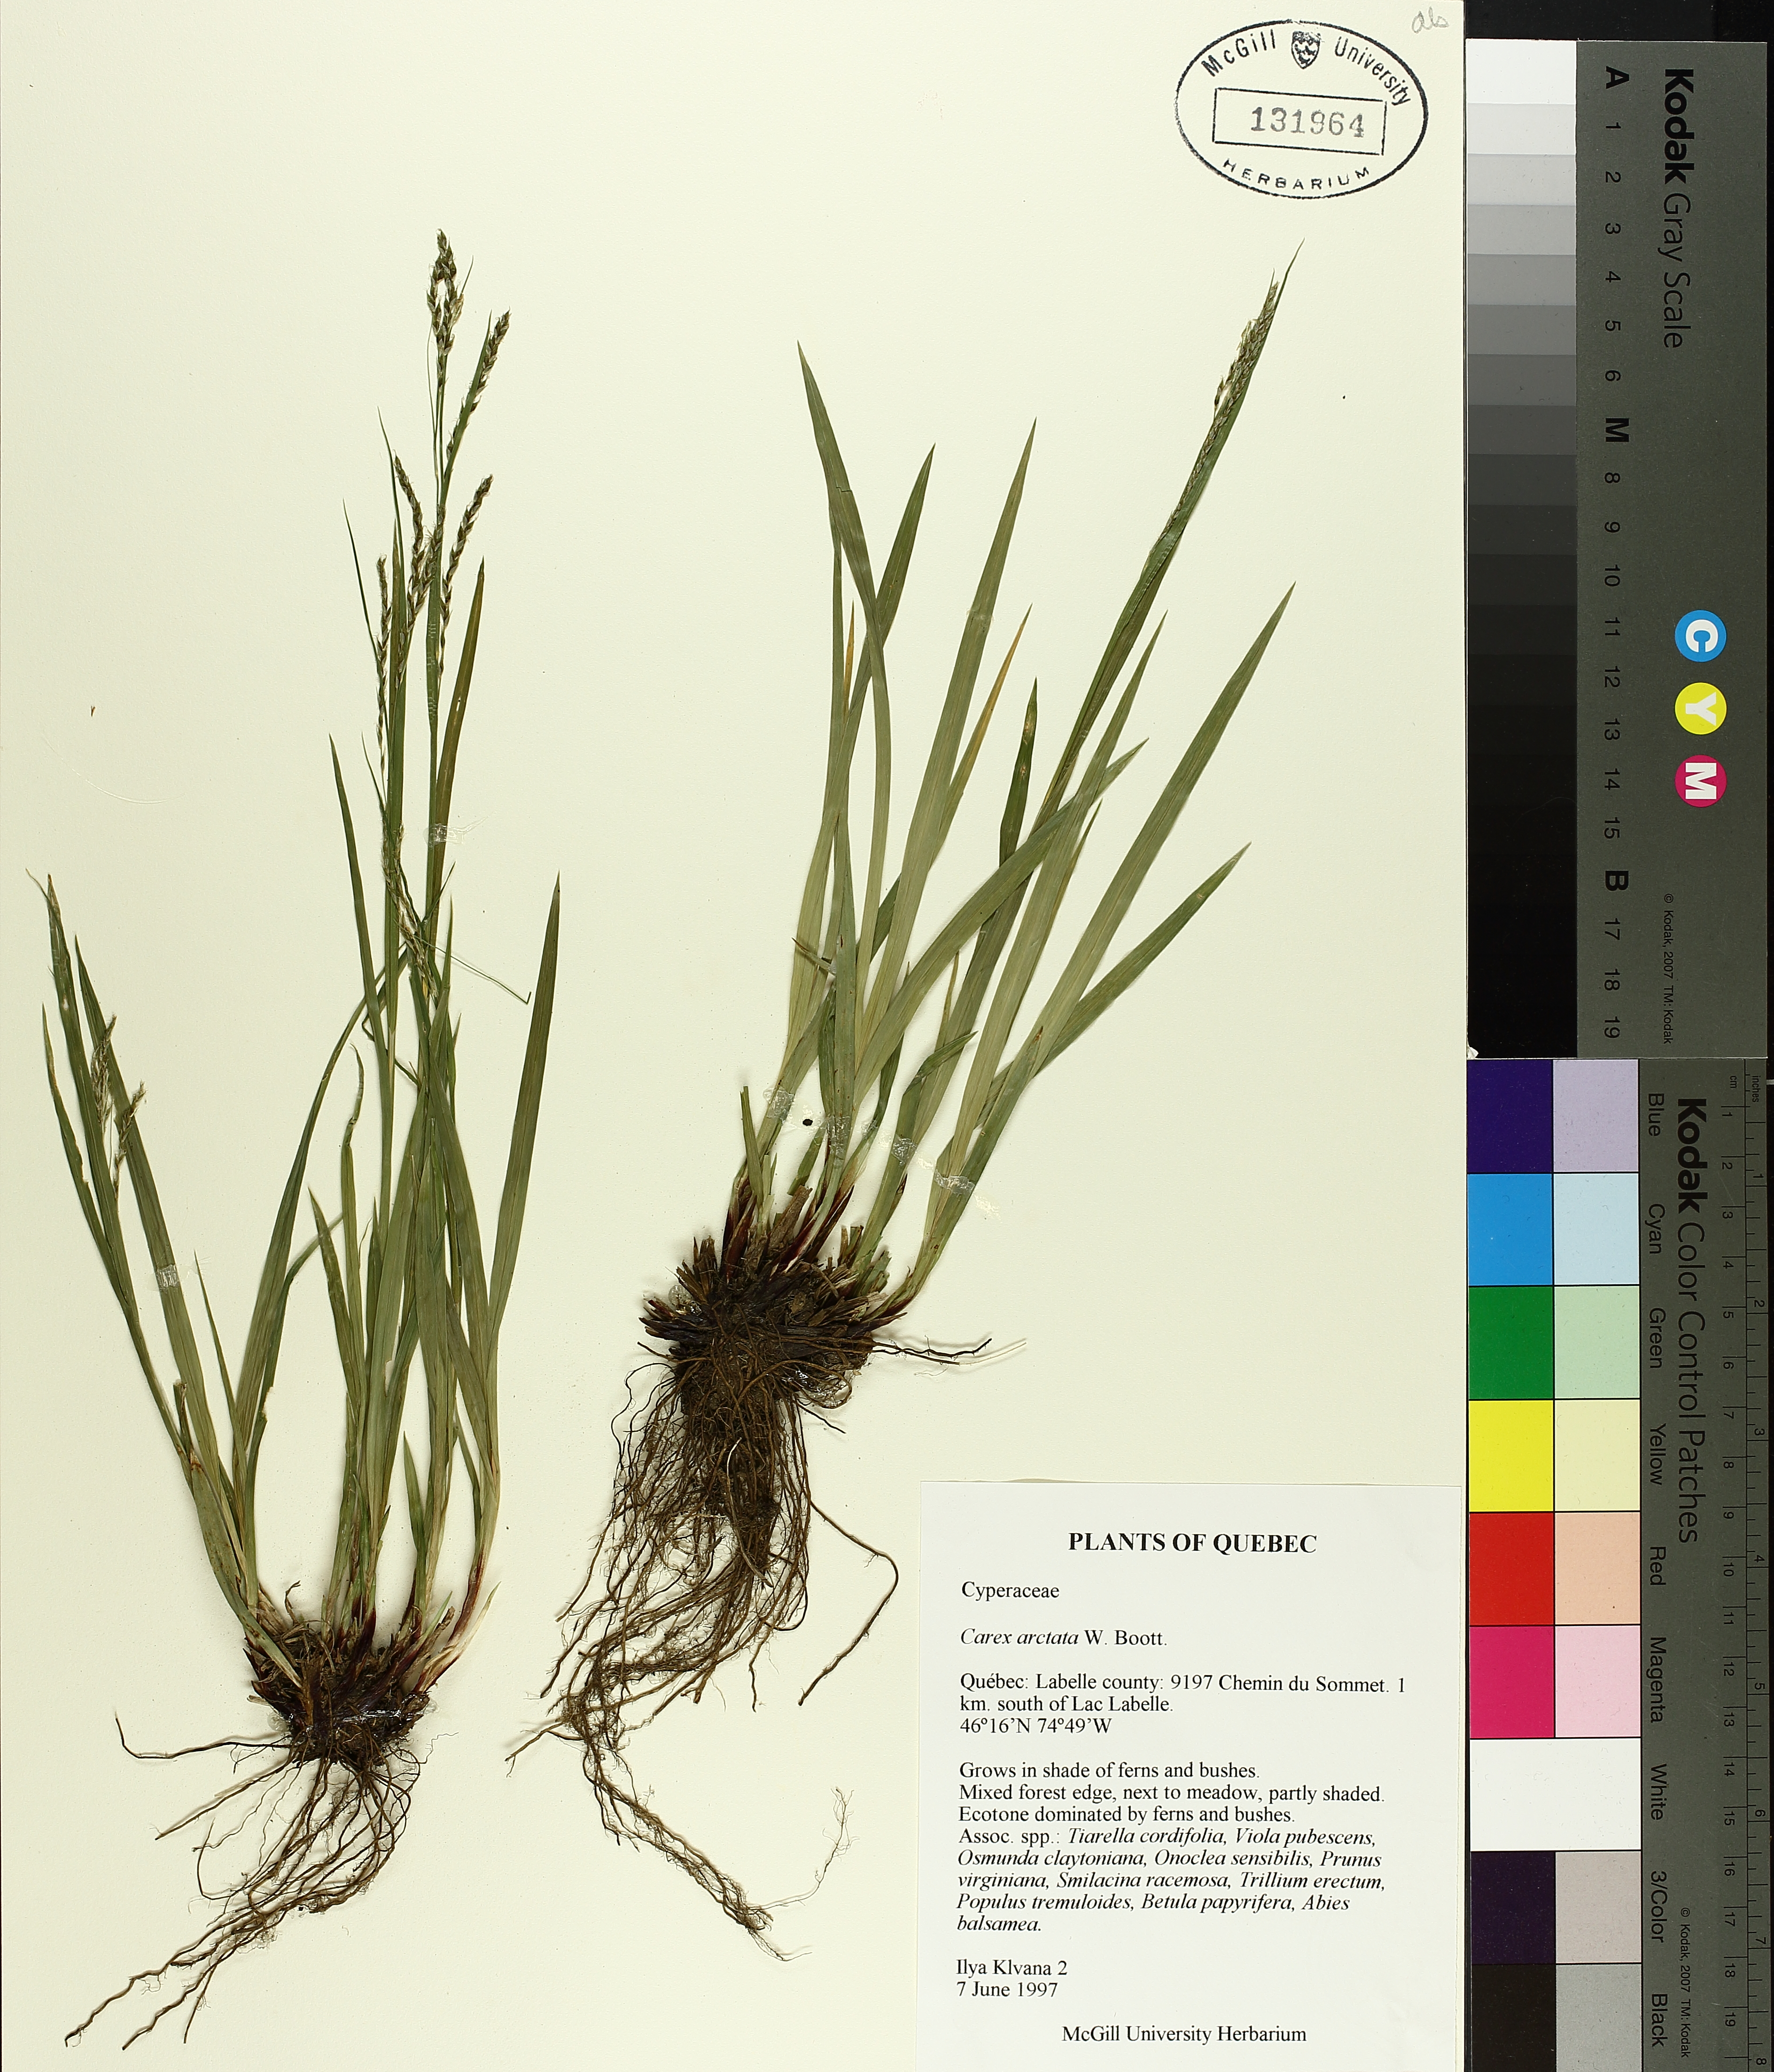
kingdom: Plantae
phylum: Tracheophyta
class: Liliopsida
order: Poales
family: Cyperaceae
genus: Carex
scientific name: Carex arctata
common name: Black sedge
